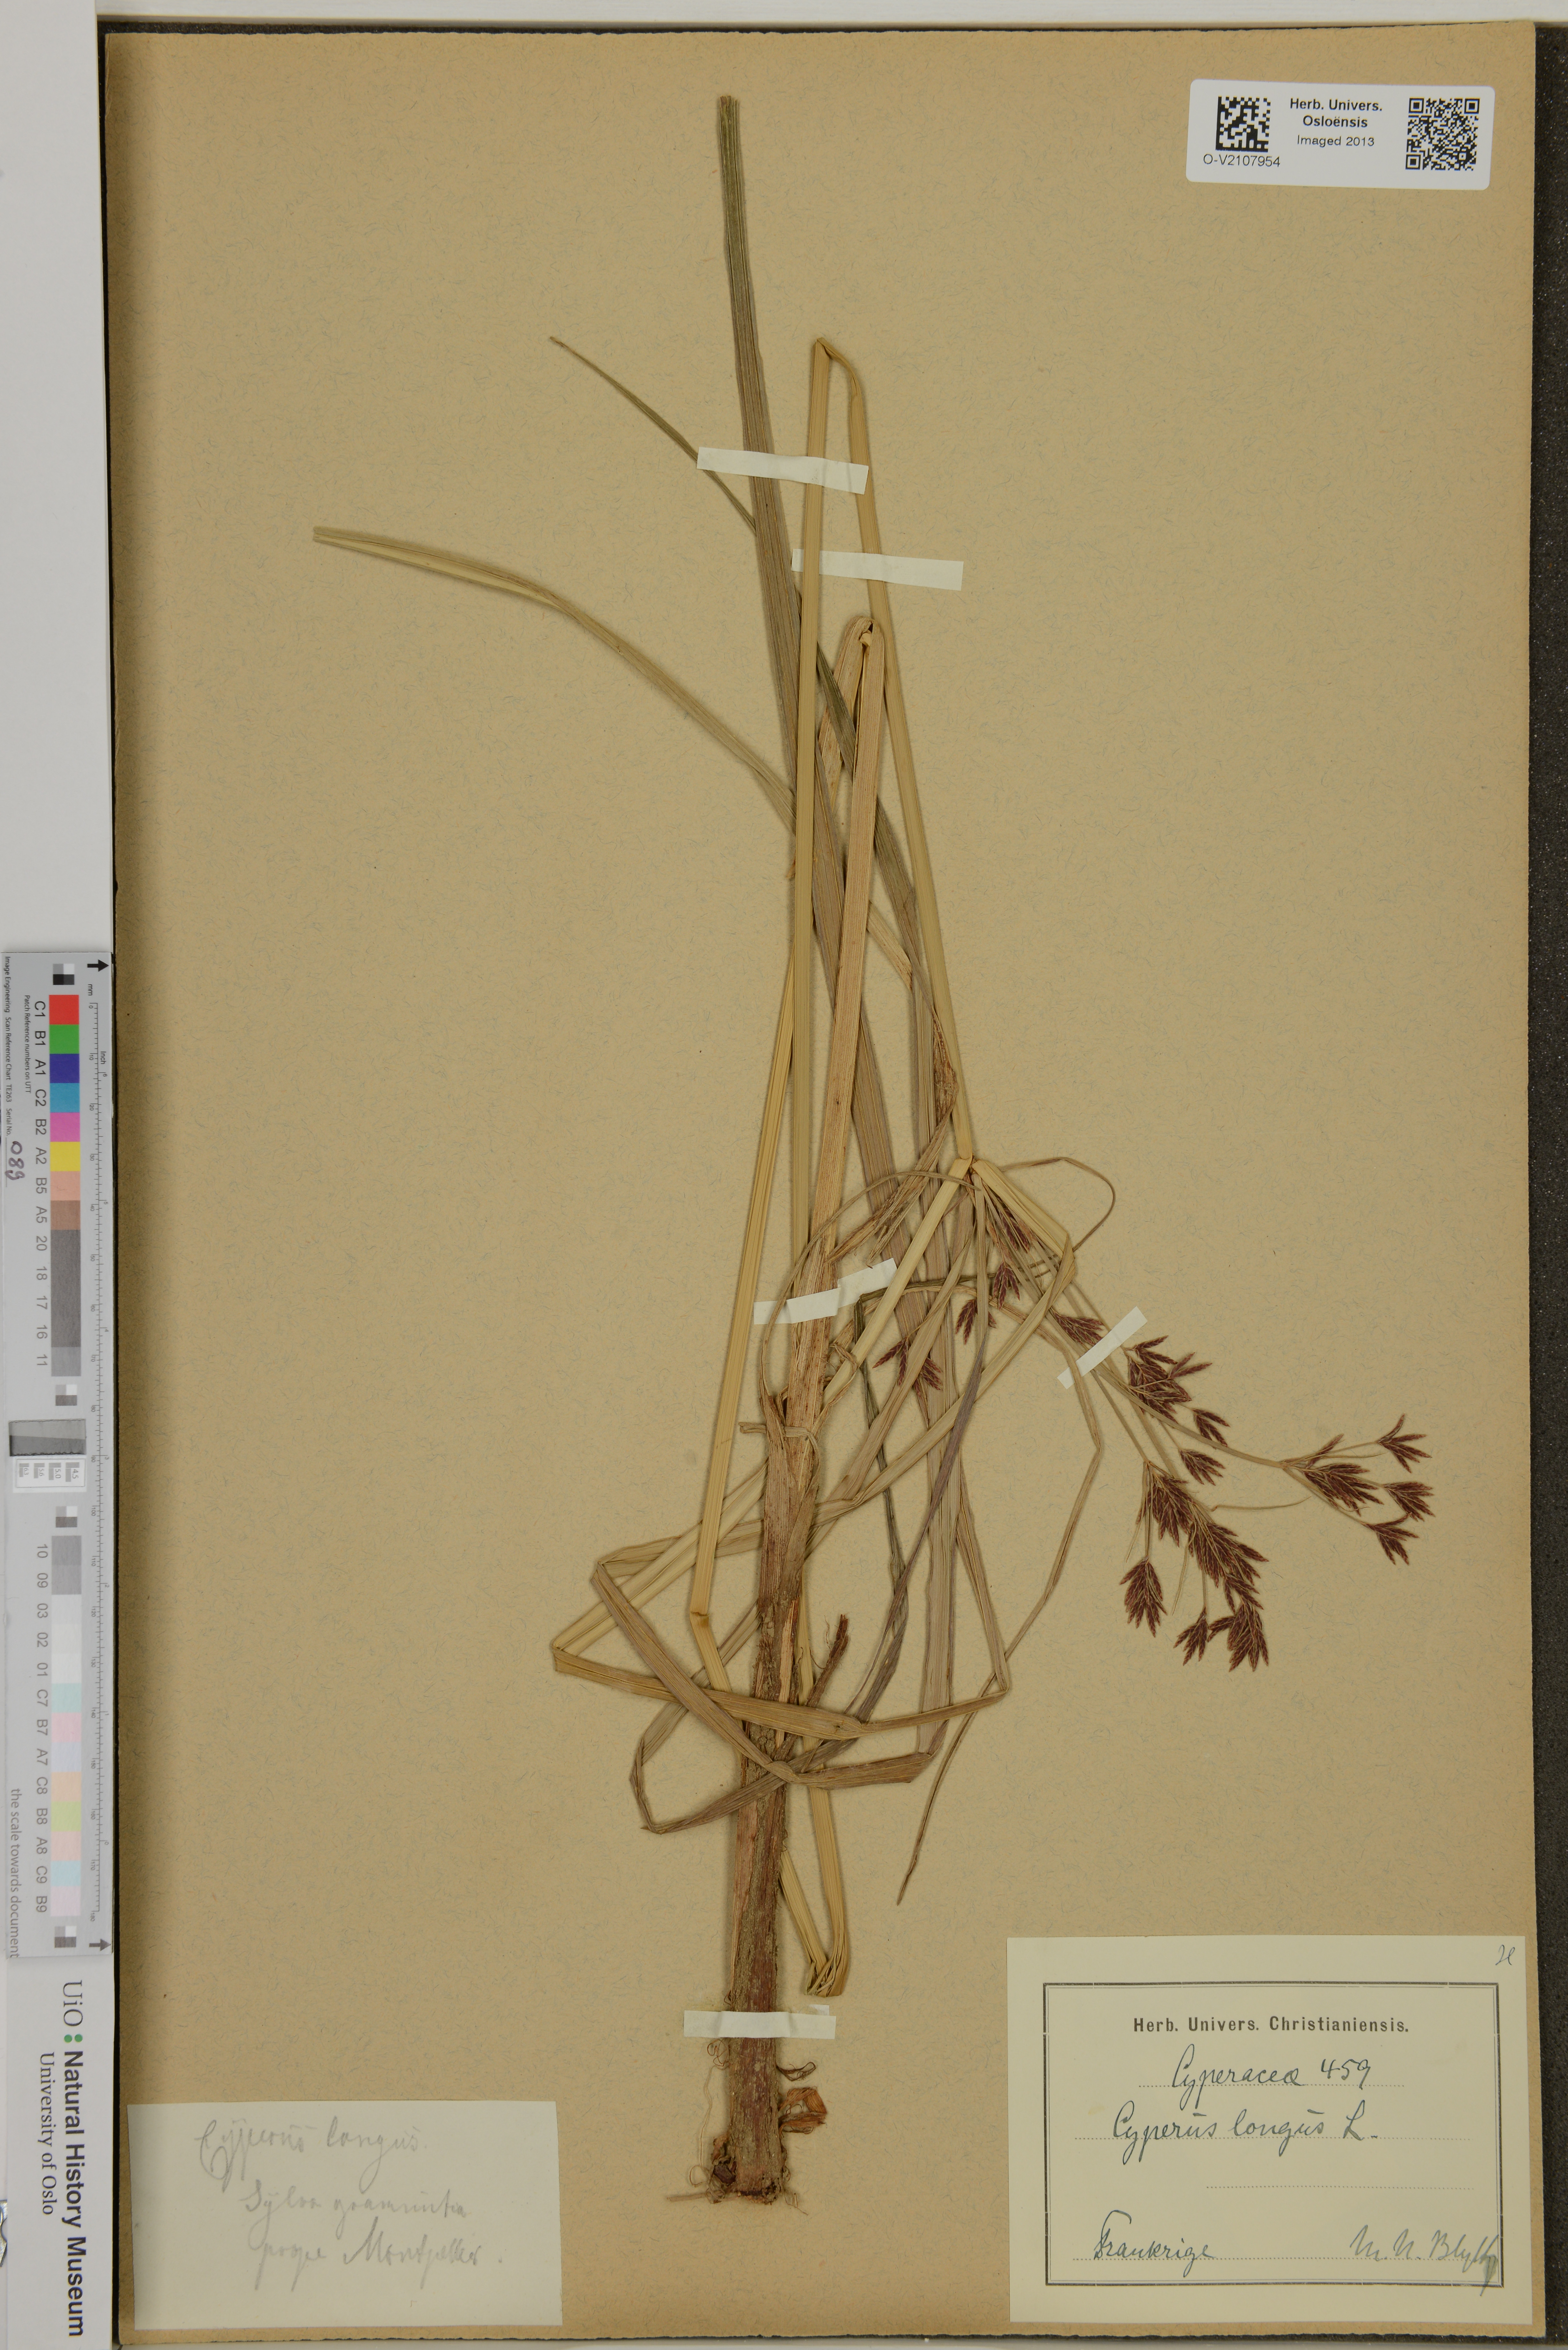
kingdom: Plantae
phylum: Tracheophyta
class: Liliopsida
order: Poales
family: Cyperaceae
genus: Cyperus
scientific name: Cyperus longus
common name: Galingale
